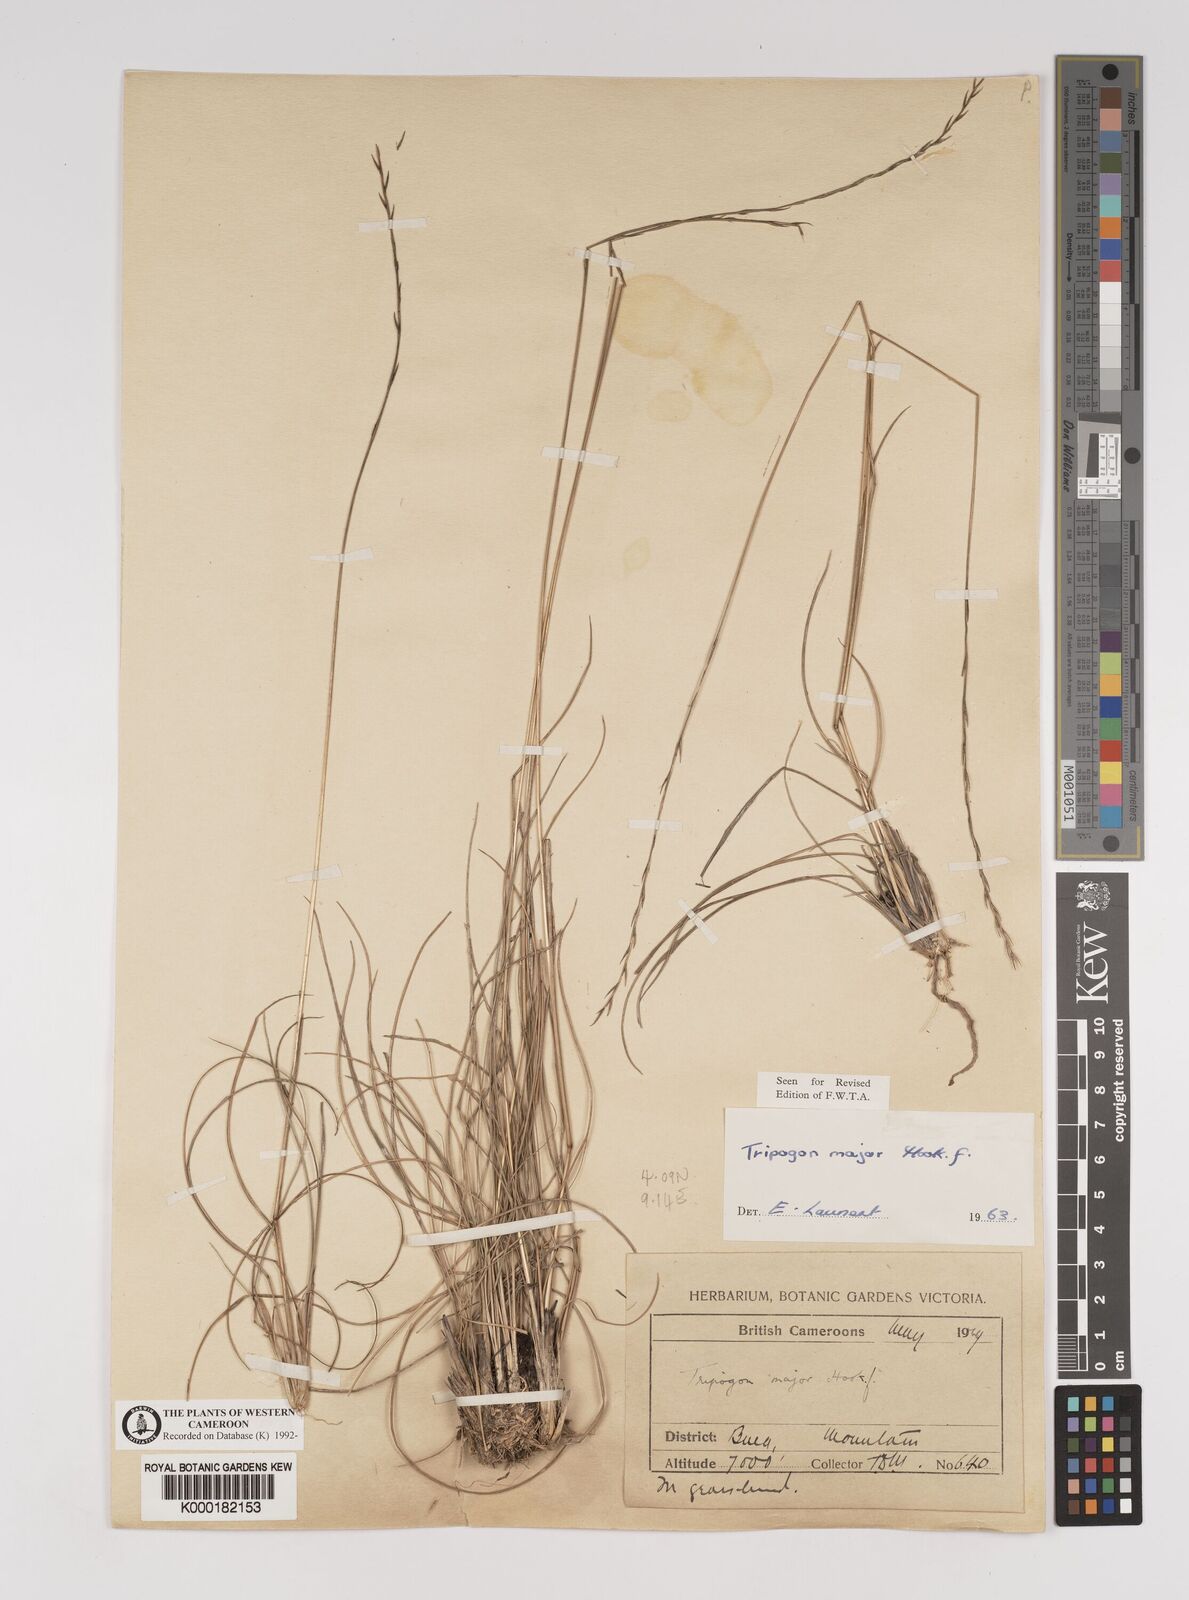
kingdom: Plantae
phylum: Tracheophyta
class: Liliopsida
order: Poales
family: Poaceae
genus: Tripogon
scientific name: Tripogon major
